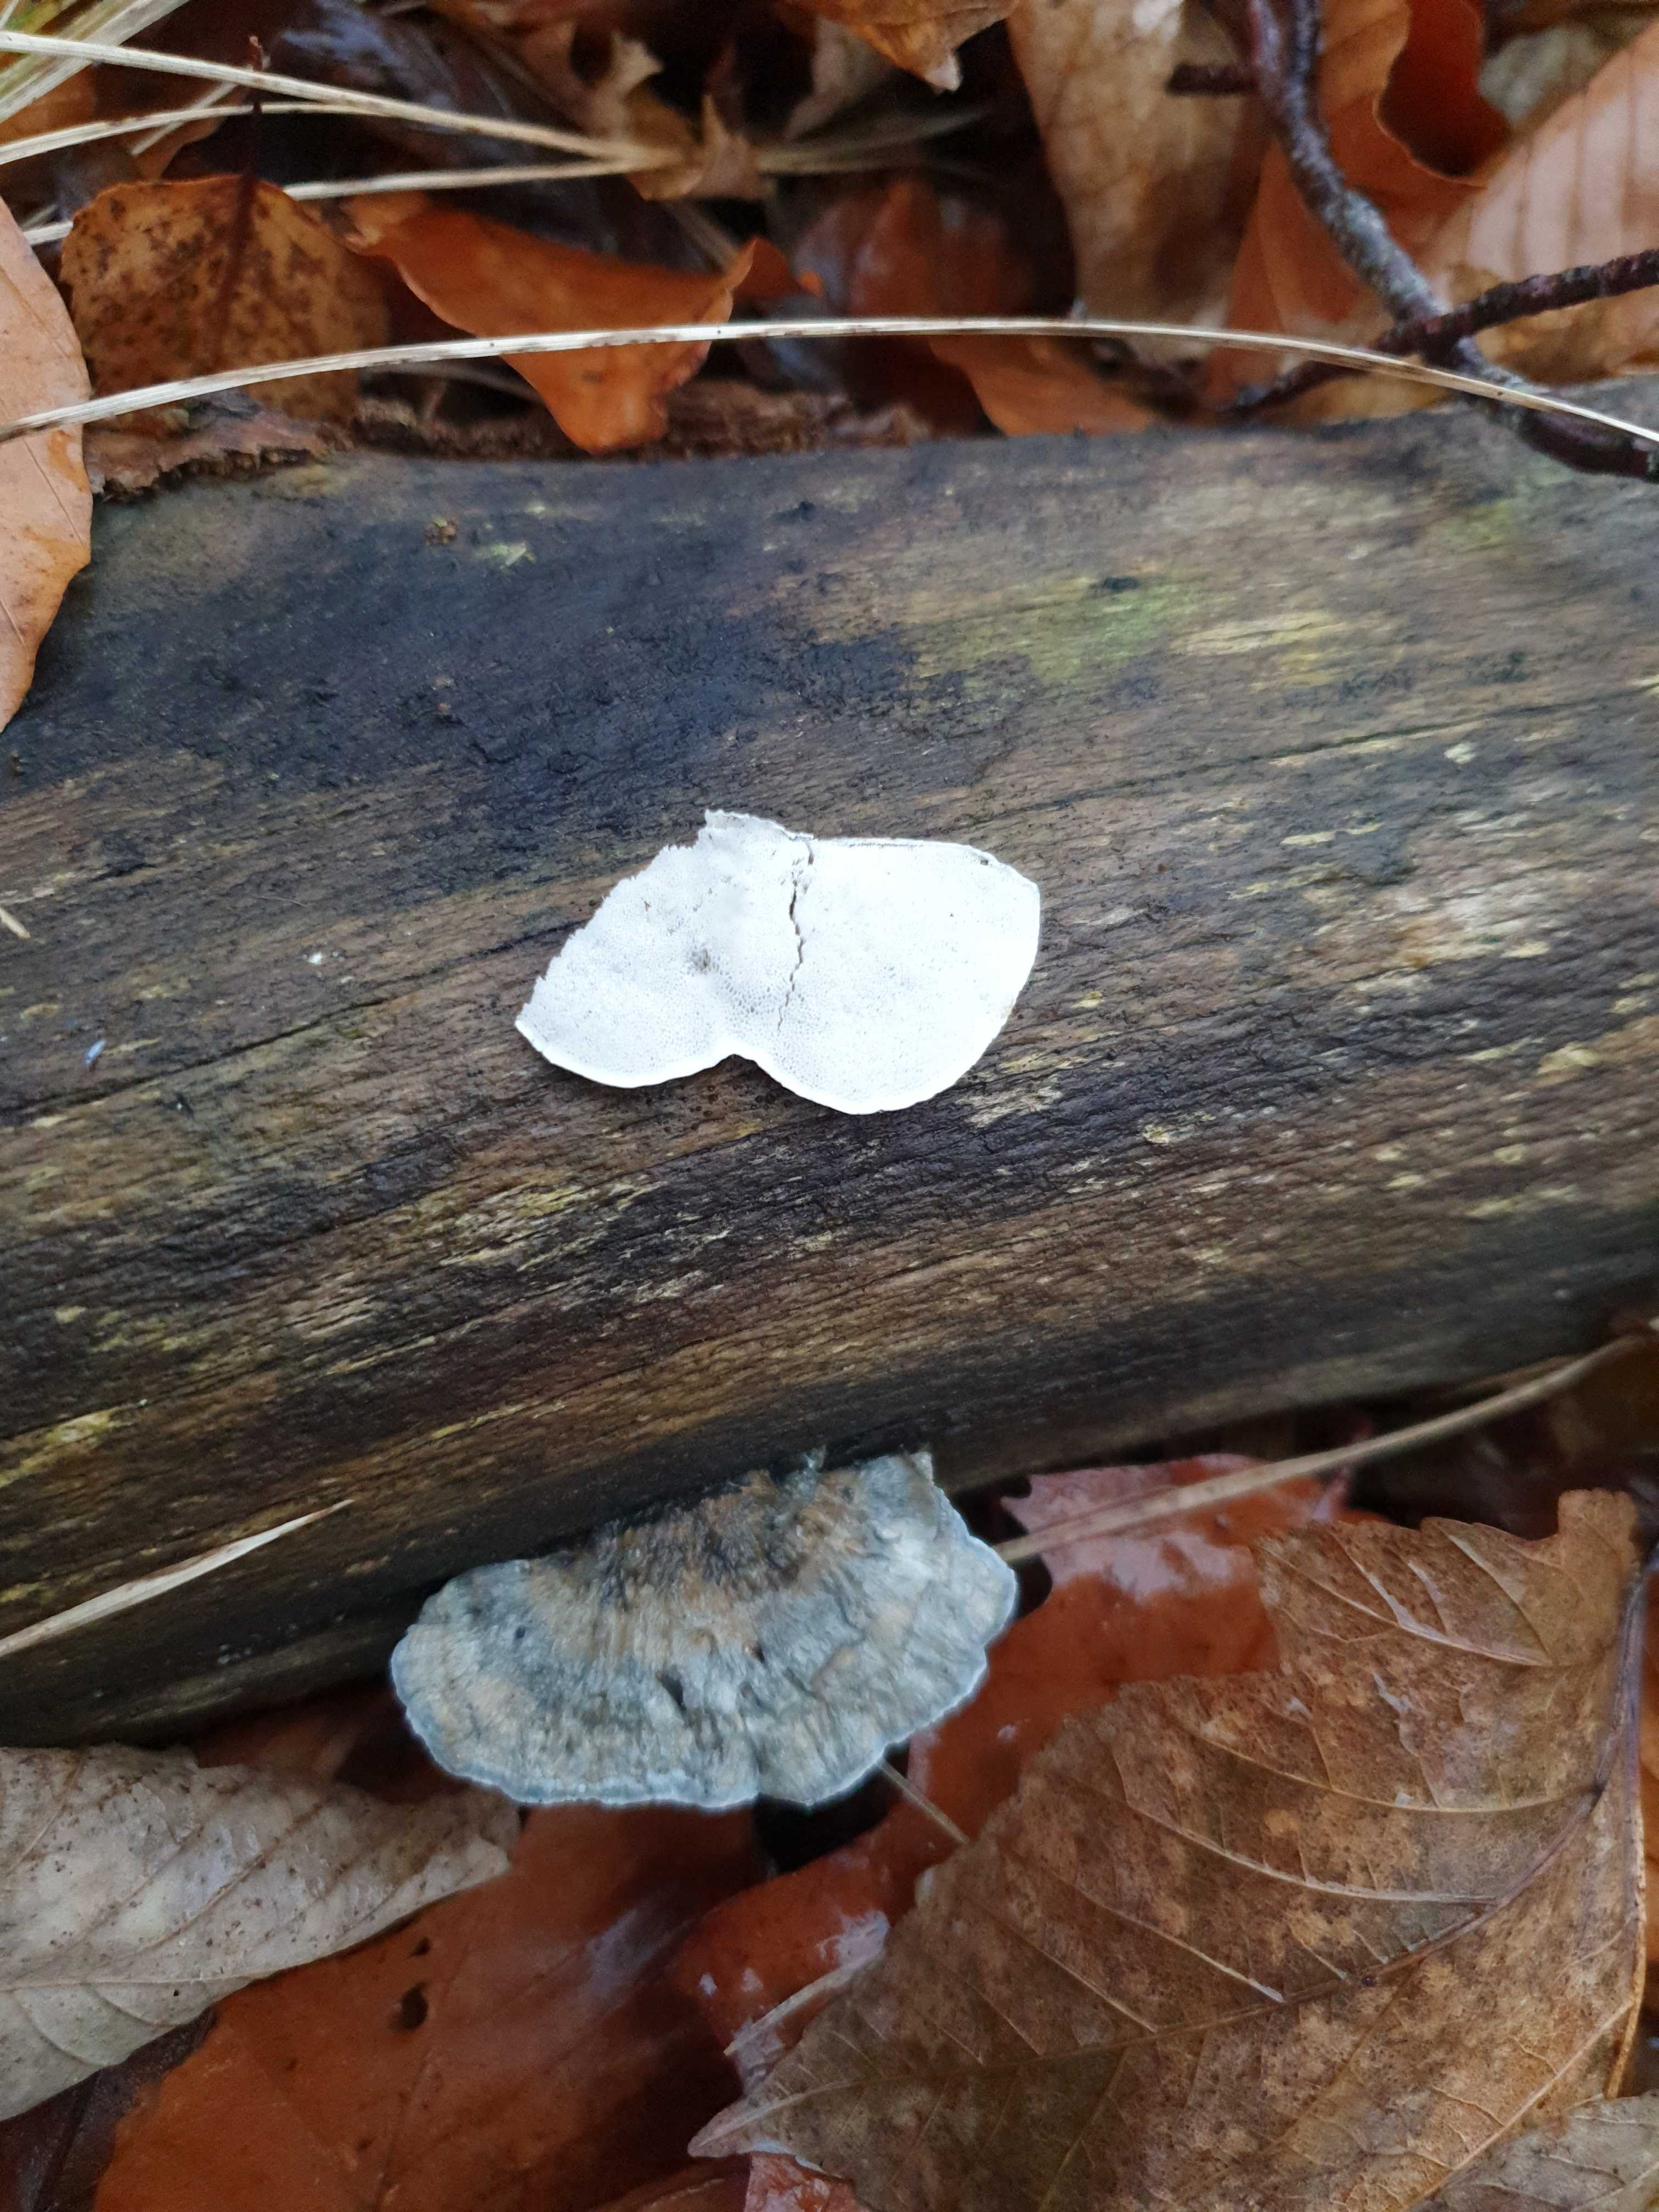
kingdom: Fungi
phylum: Basidiomycota
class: Agaricomycetes
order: Polyporales
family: Polyporaceae
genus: Cyanosporus
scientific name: Cyanosporus alni
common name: blegblå kødporesvamp
